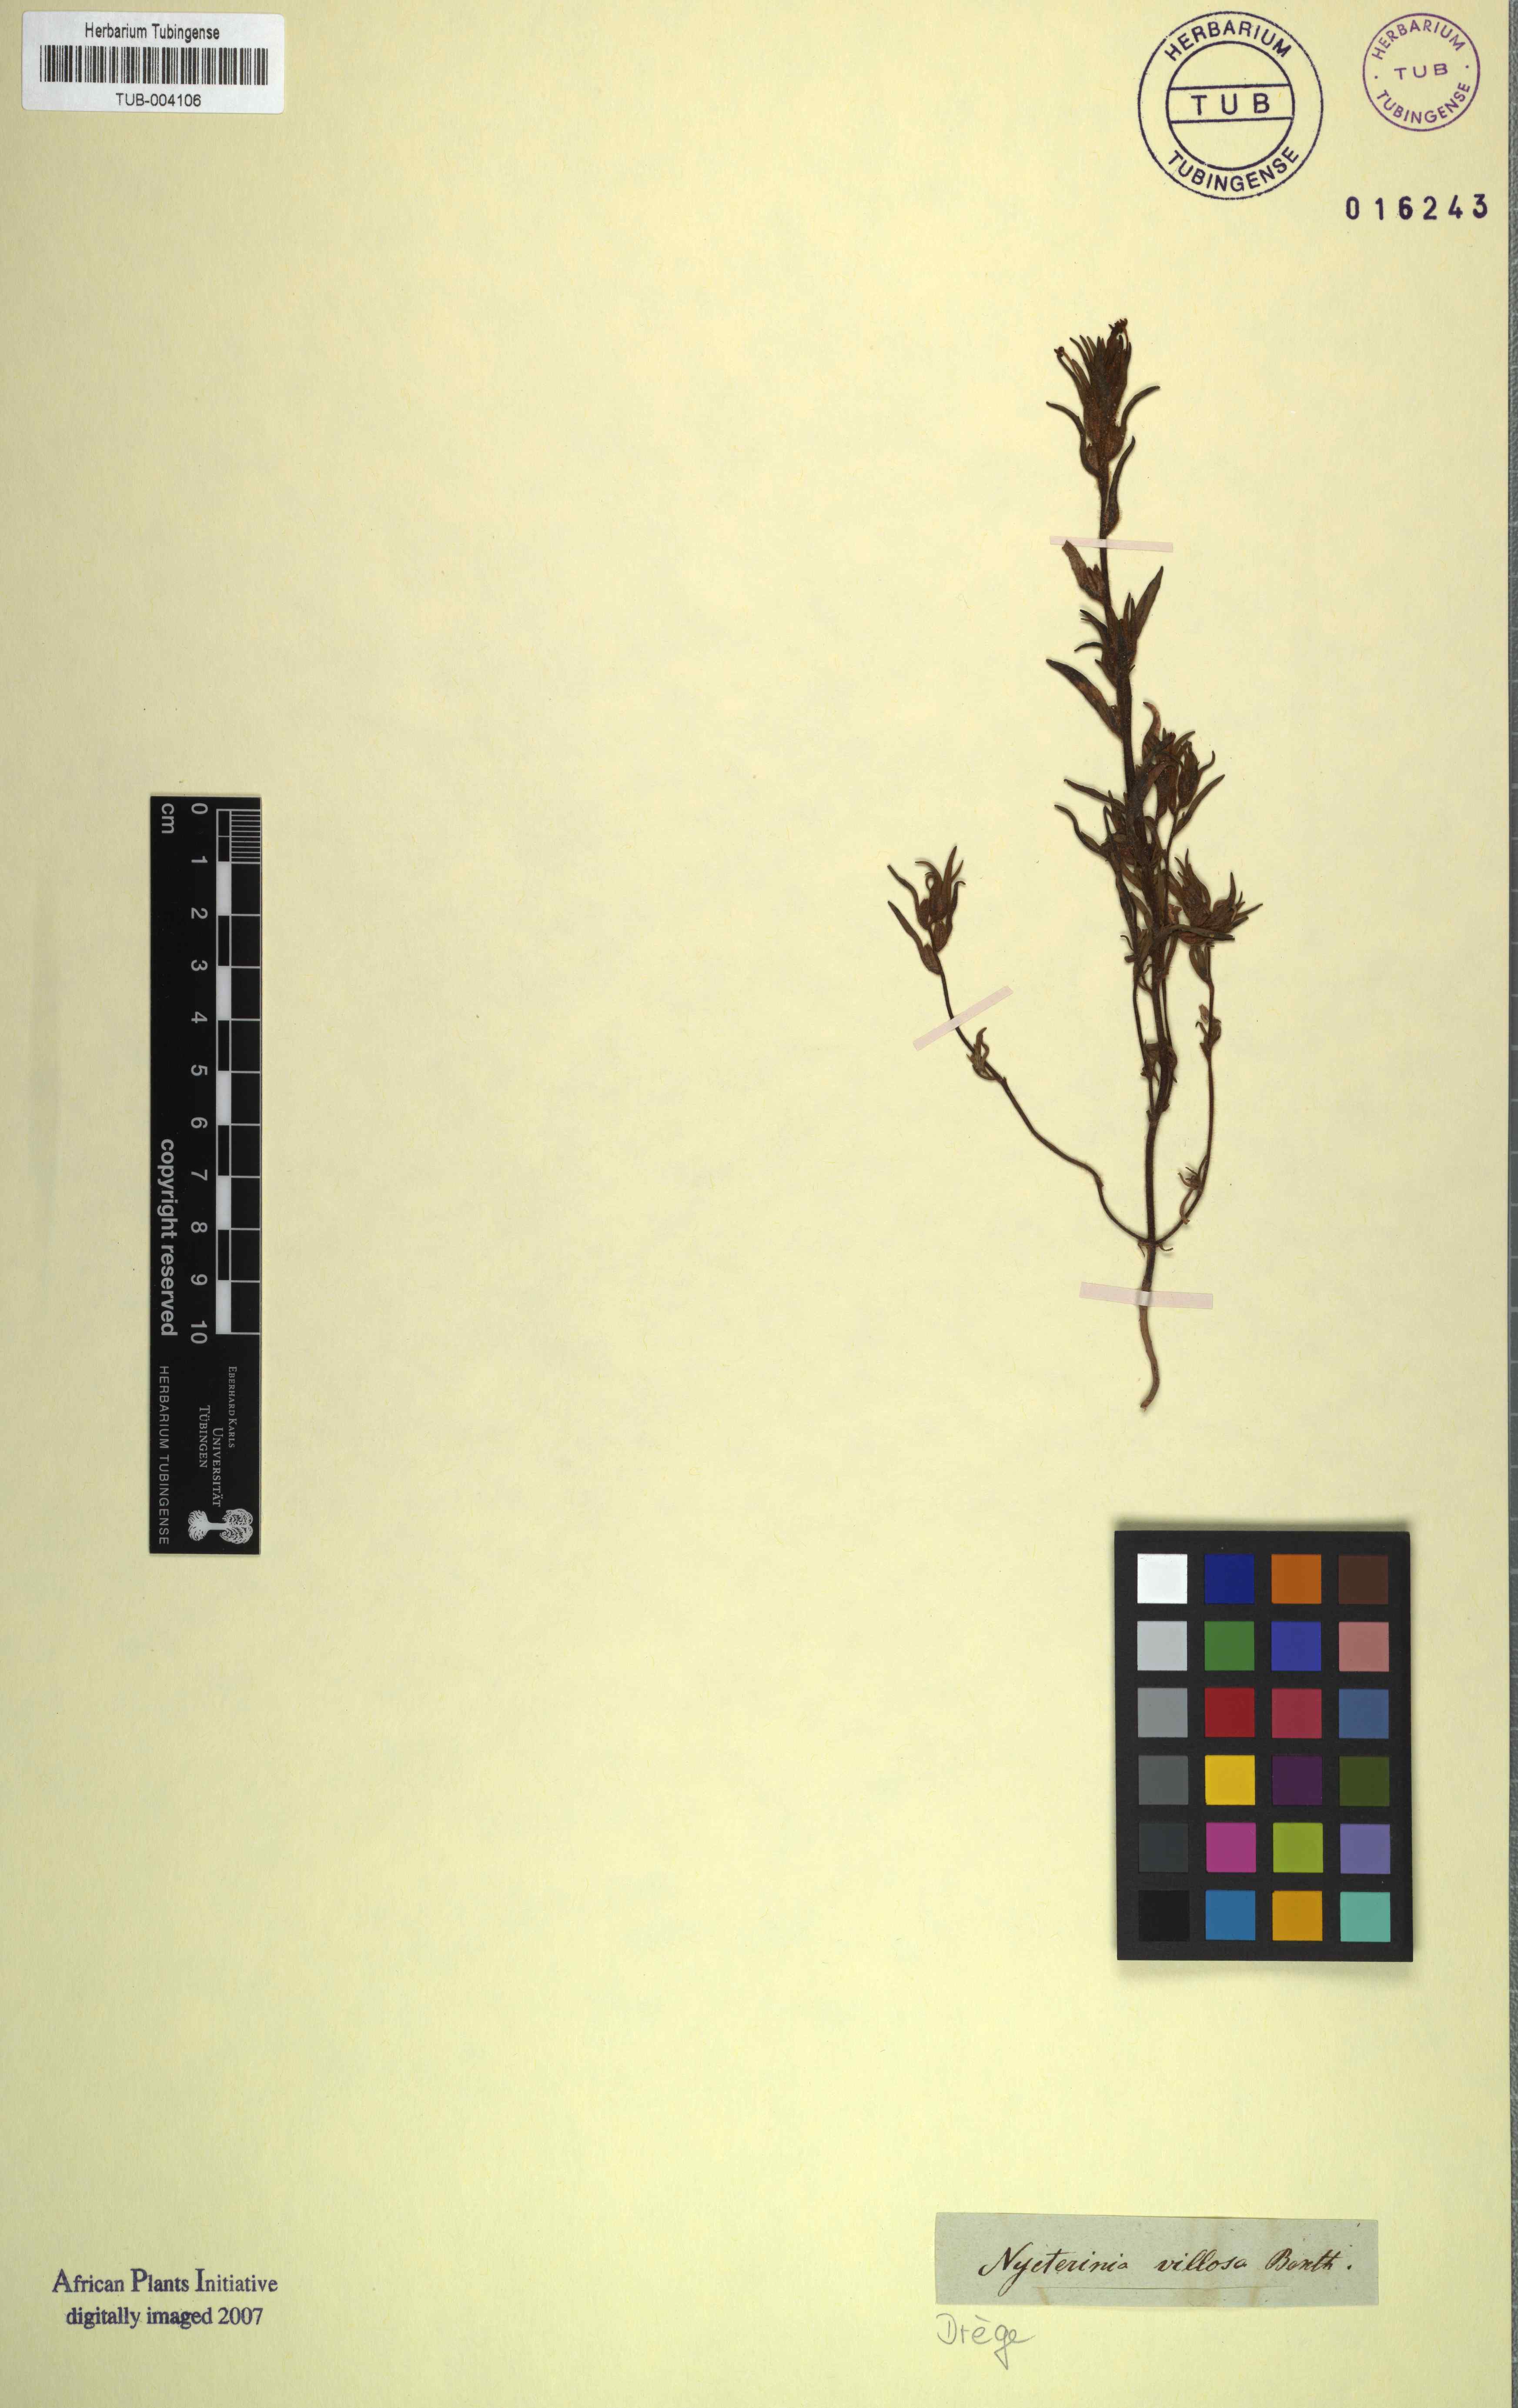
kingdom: Plantae
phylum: Tracheophyta
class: Magnoliopsida
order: Lamiales
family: Scrophulariaceae
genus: Zaluzianskya
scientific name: Zaluzianskya villosa
